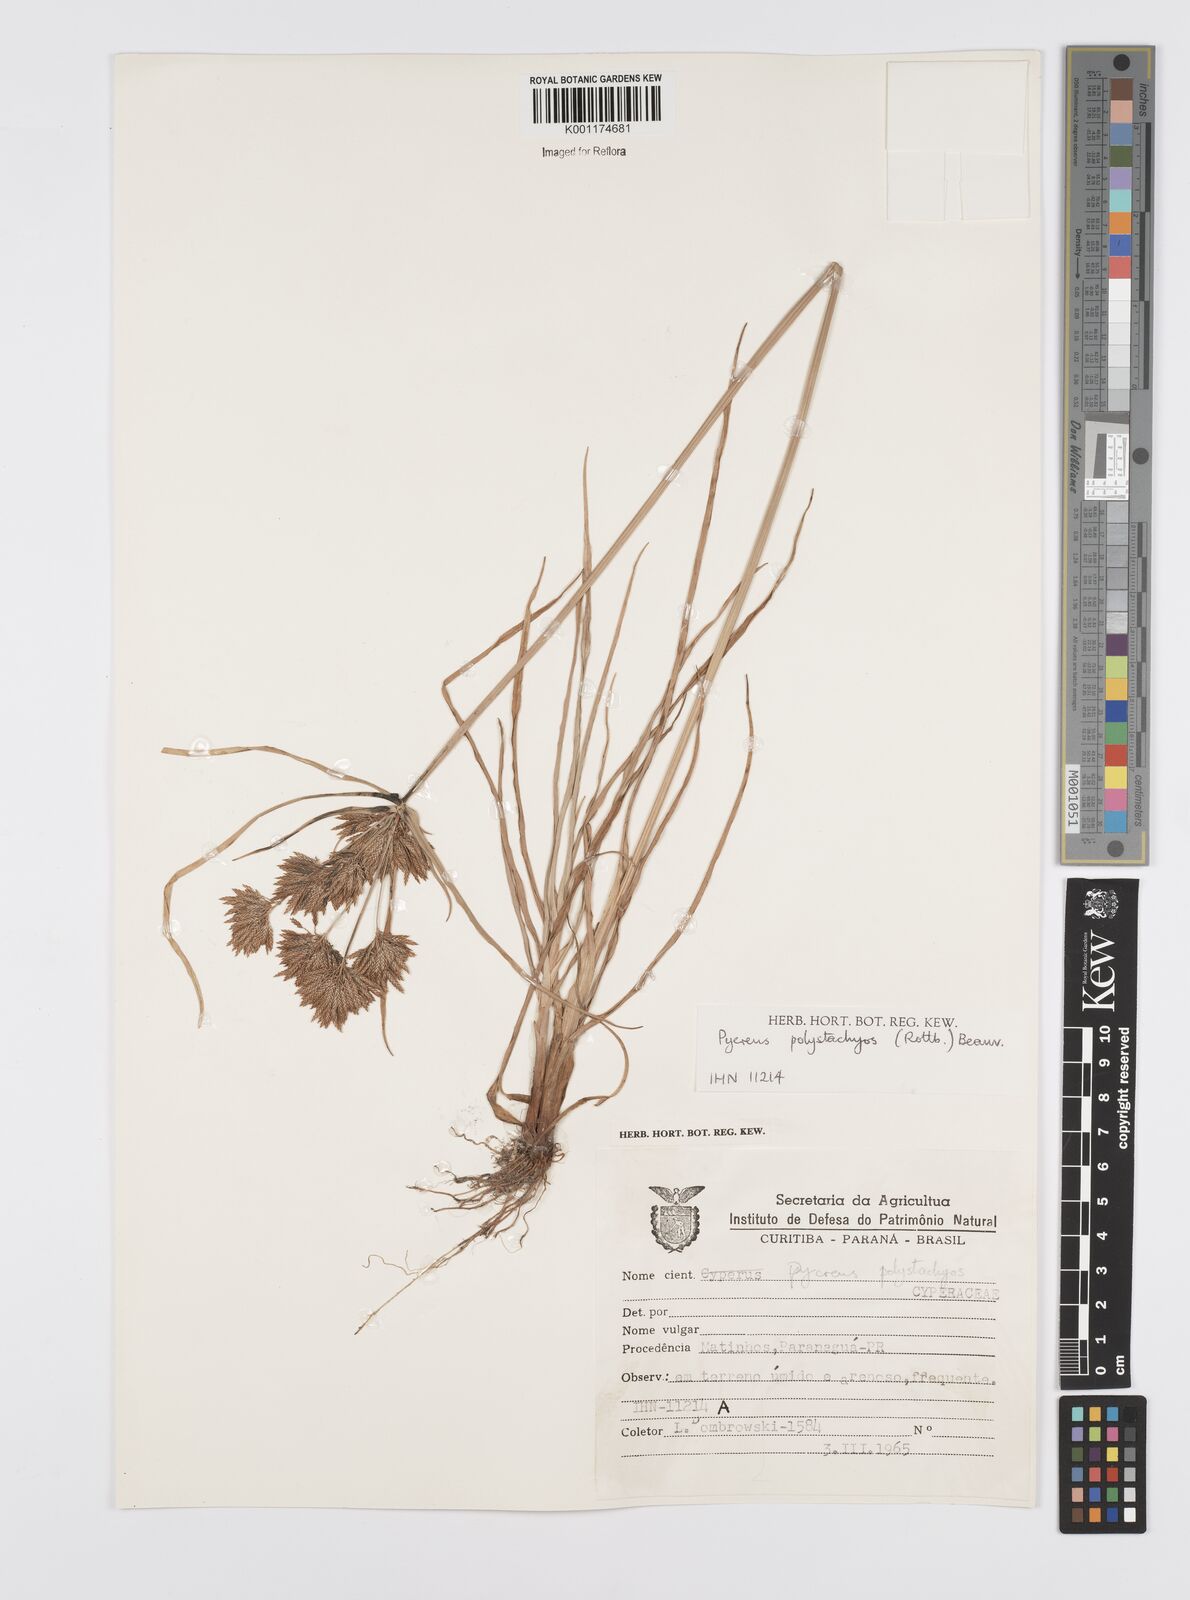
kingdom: Plantae
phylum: Tracheophyta
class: Liliopsida
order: Poales
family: Cyperaceae
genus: Cyperus
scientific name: Cyperus polystachyos
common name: Bunchy flat sedge
